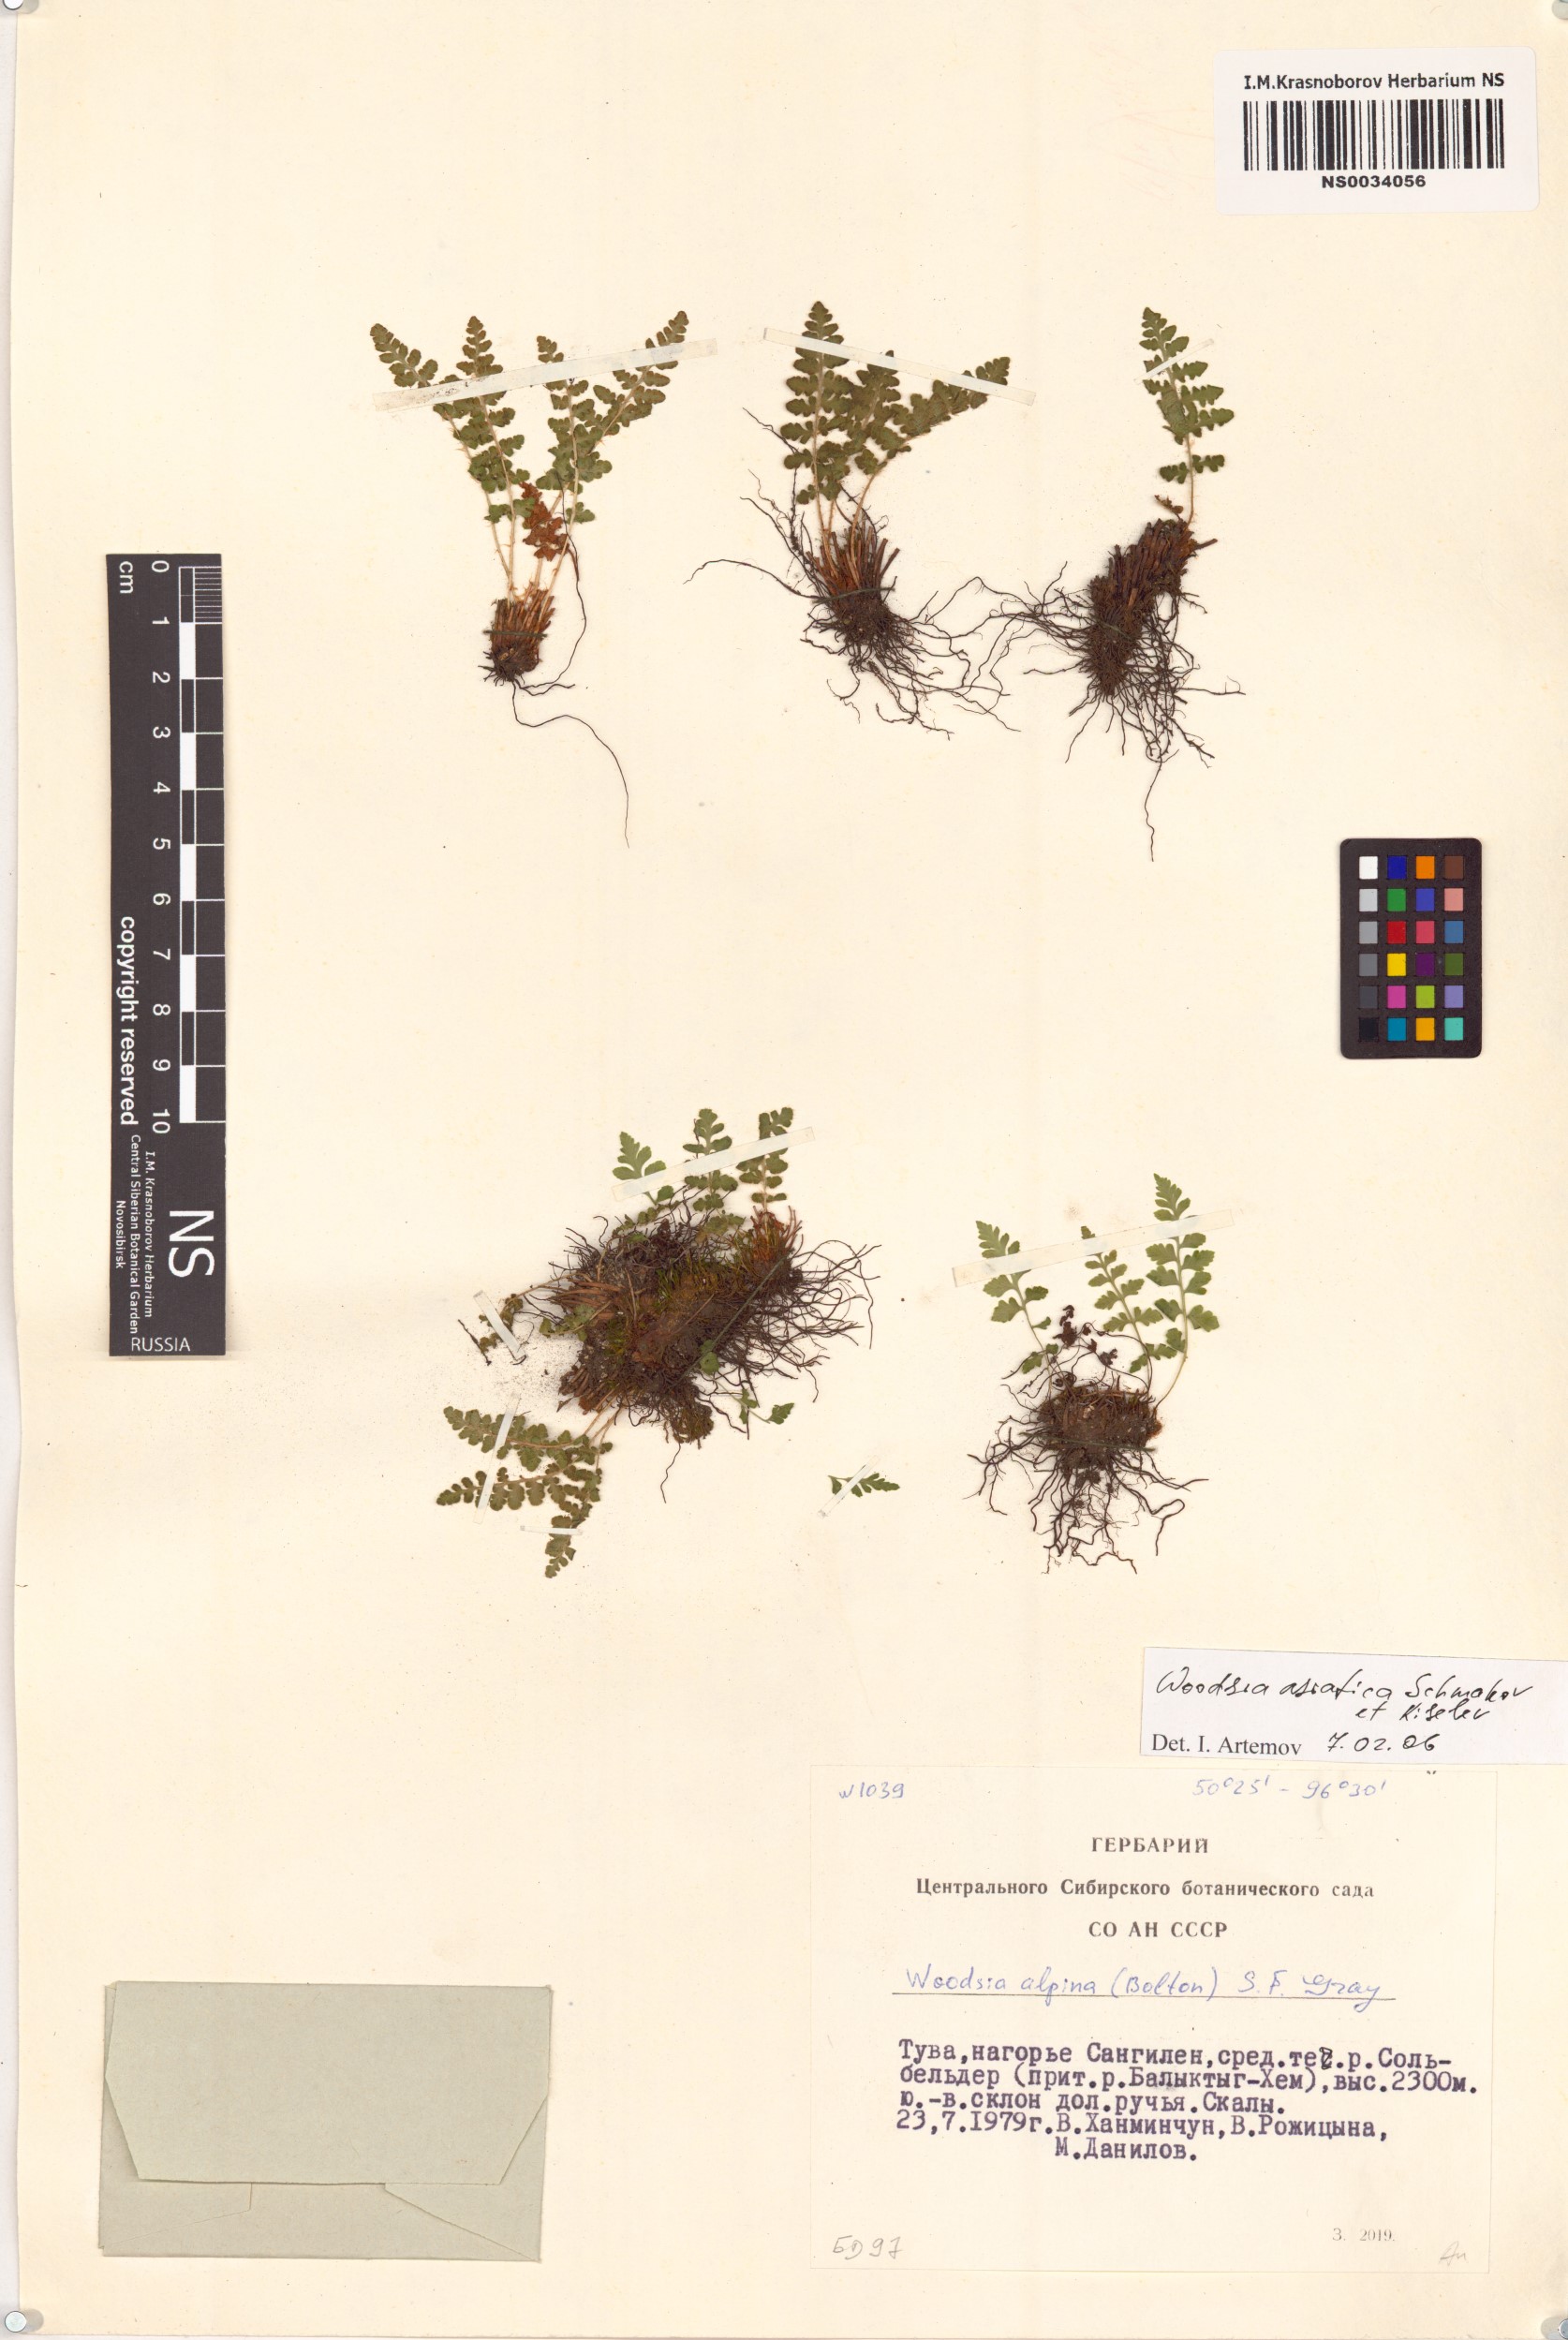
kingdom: Plantae
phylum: Tracheophyta
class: Polypodiopsida
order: Polypodiales
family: Woodsiaceae
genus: Woodsia
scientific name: Woodsia asiatica
